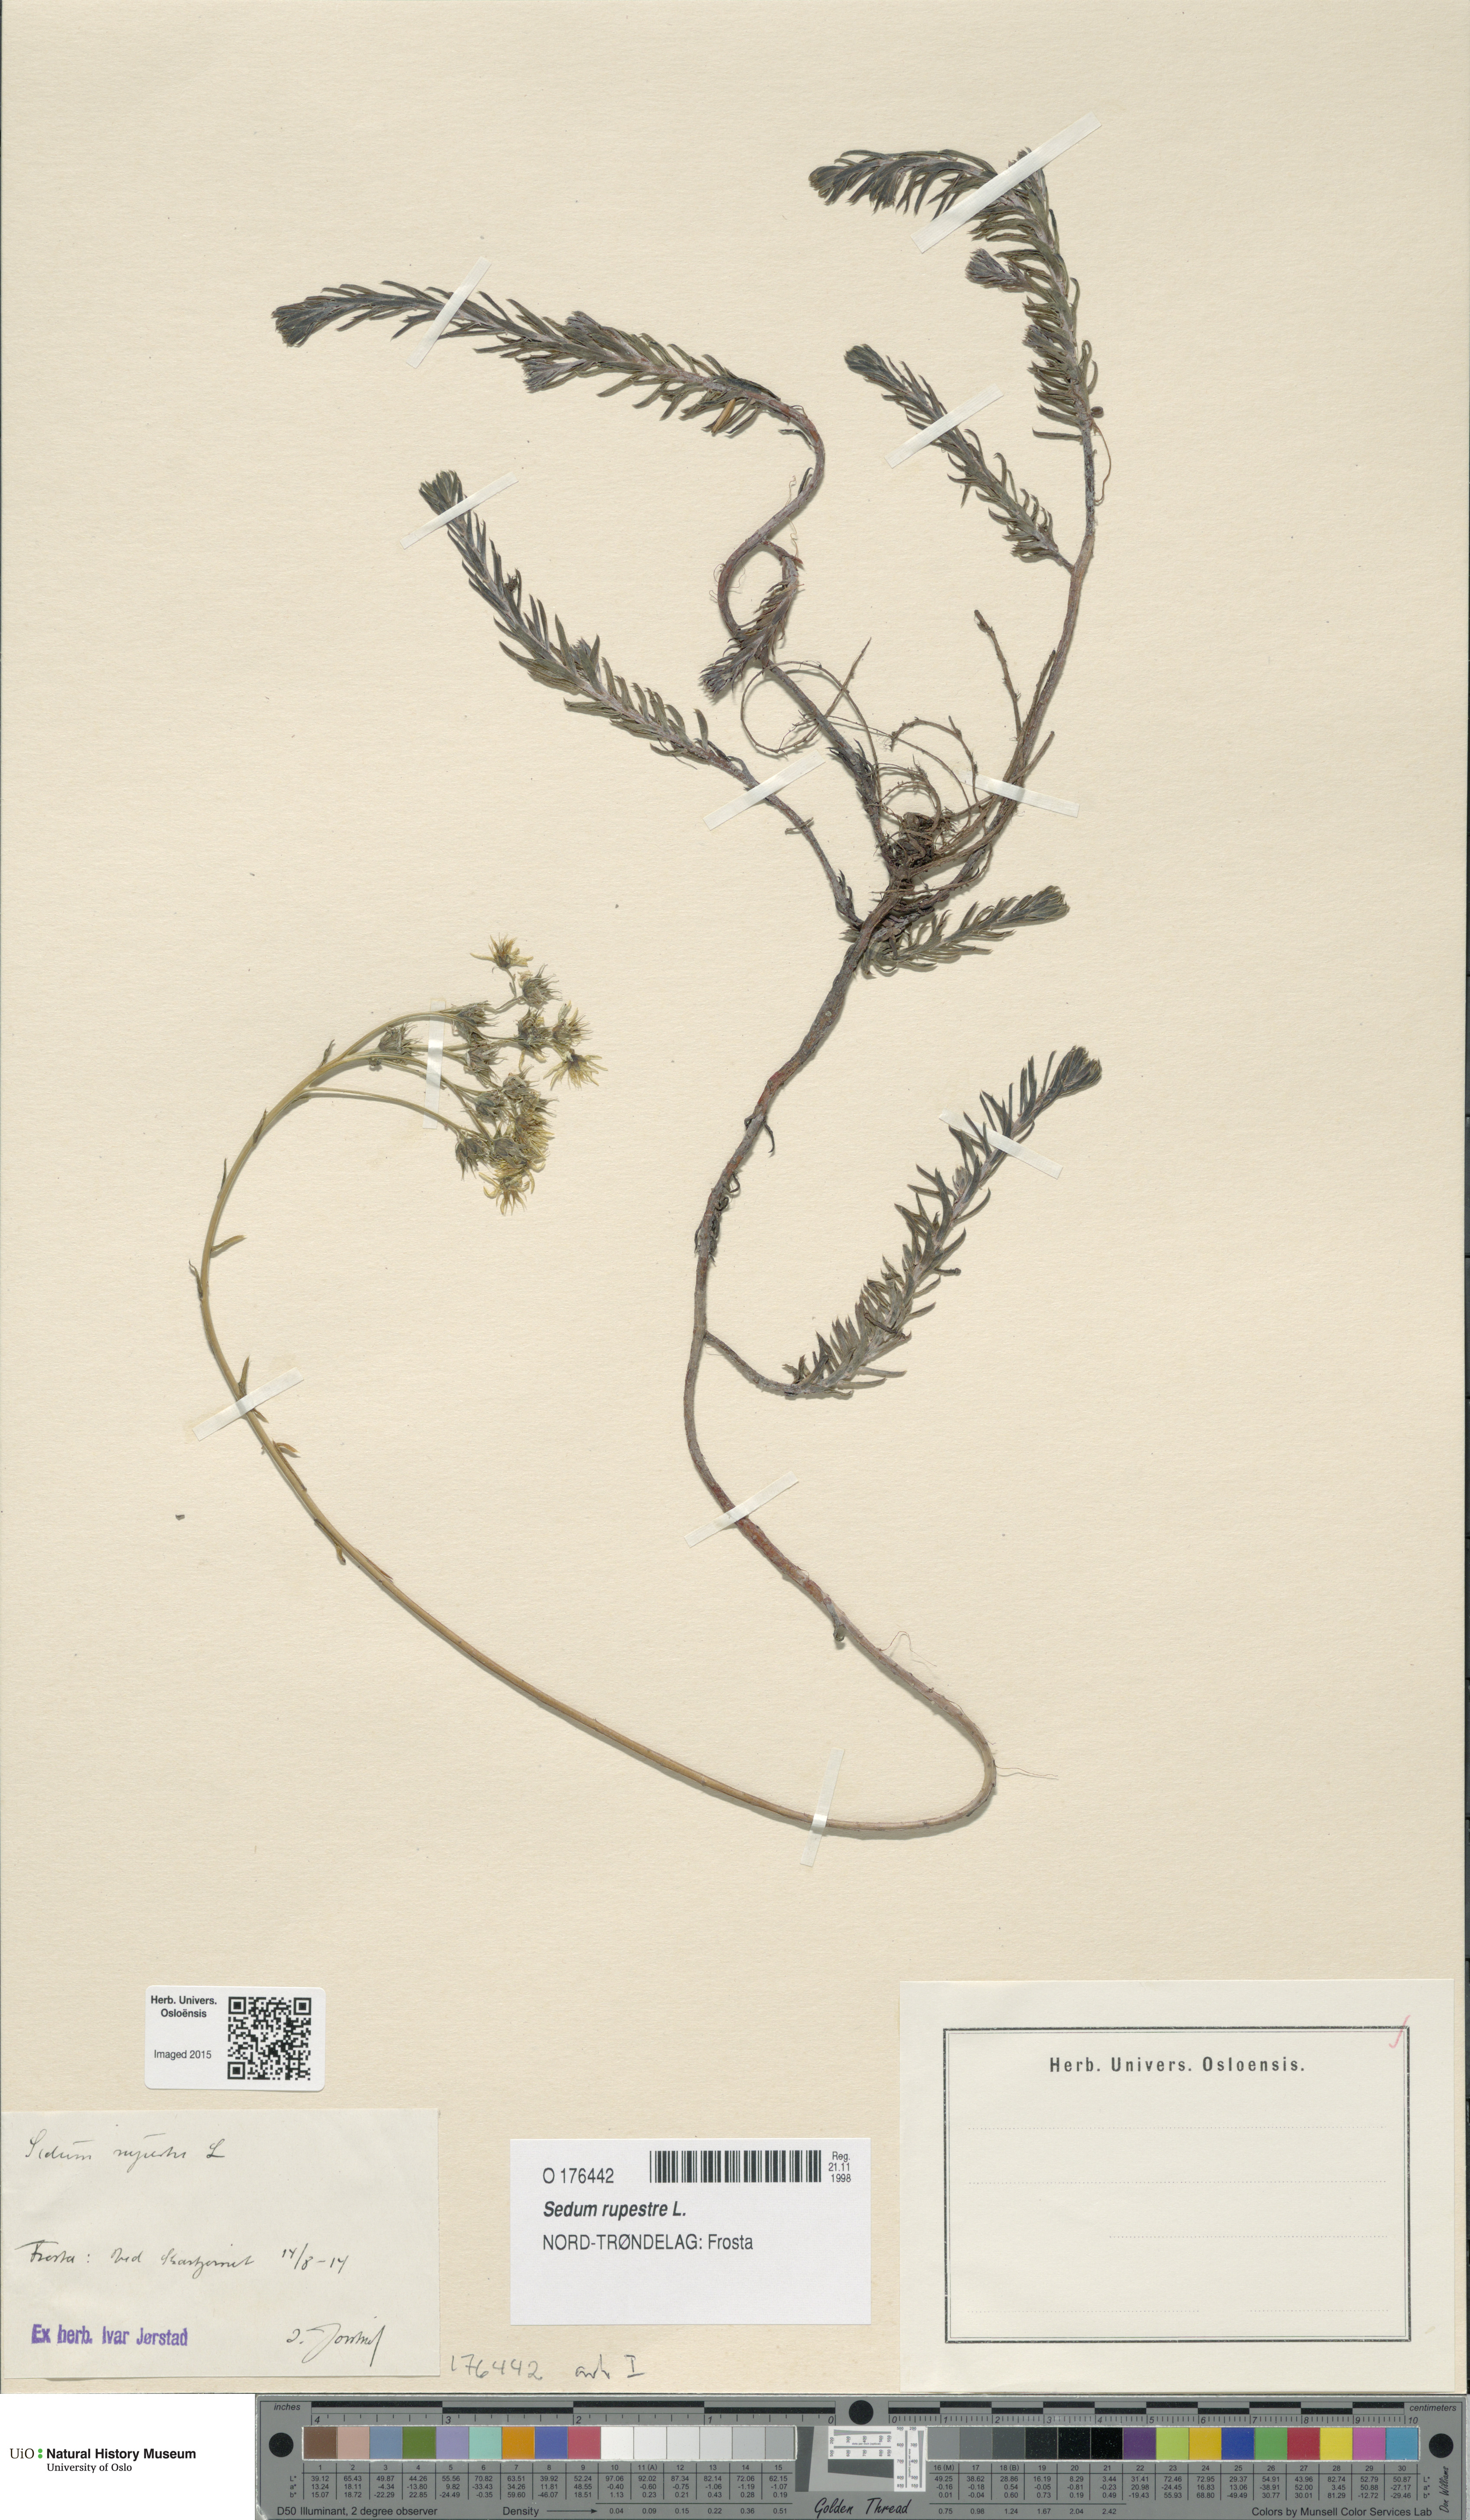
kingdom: Plantae
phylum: Tracheophyta
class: Magnoliopsida
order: Saxifragales
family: Crassulaceae
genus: Petrosedum
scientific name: Petrosedum rupestre
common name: Jenny's stonecrop
